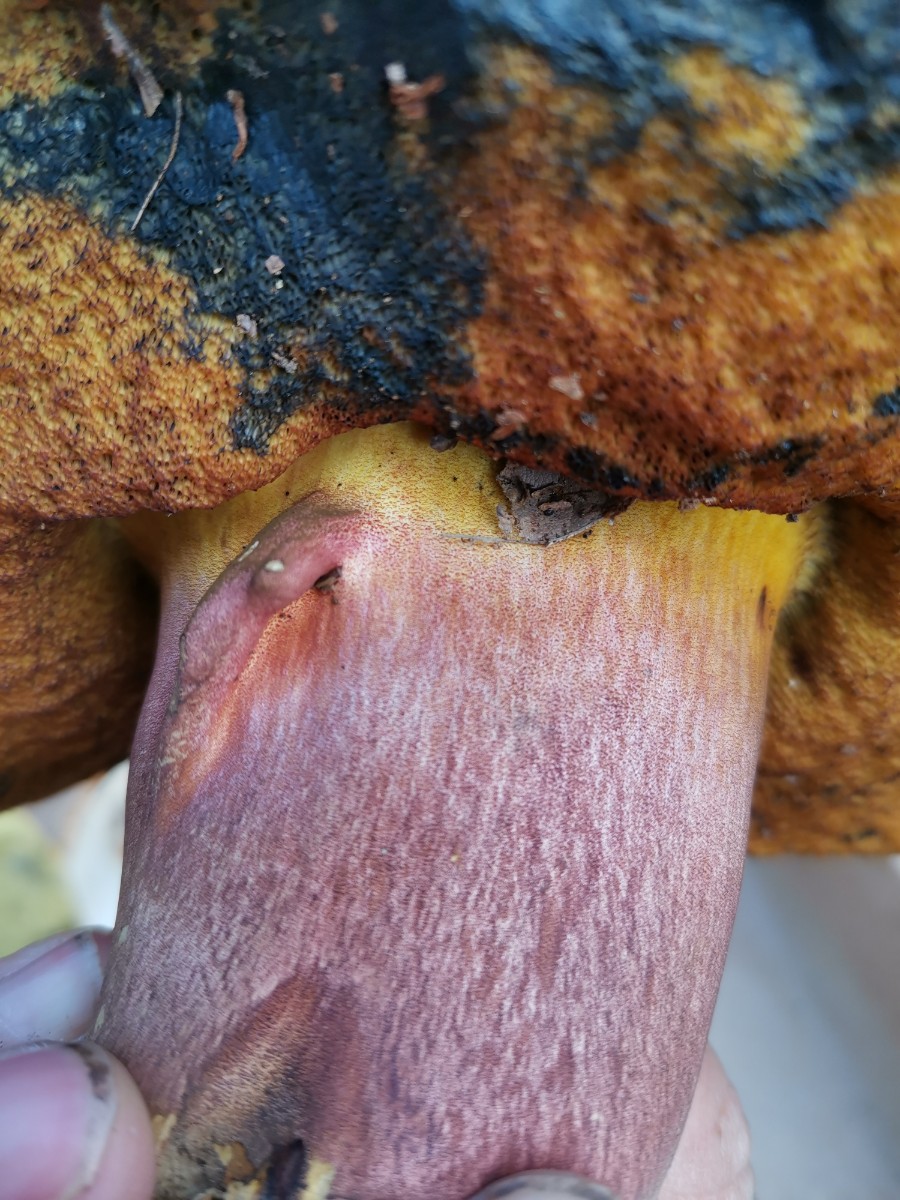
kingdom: Fungi
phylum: Basidiomycota
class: Agaricomycetes
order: Boletales
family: Boletaceae
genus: Neoboletus
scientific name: Neoboletus xanthopus
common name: finprikket indigorørhat
